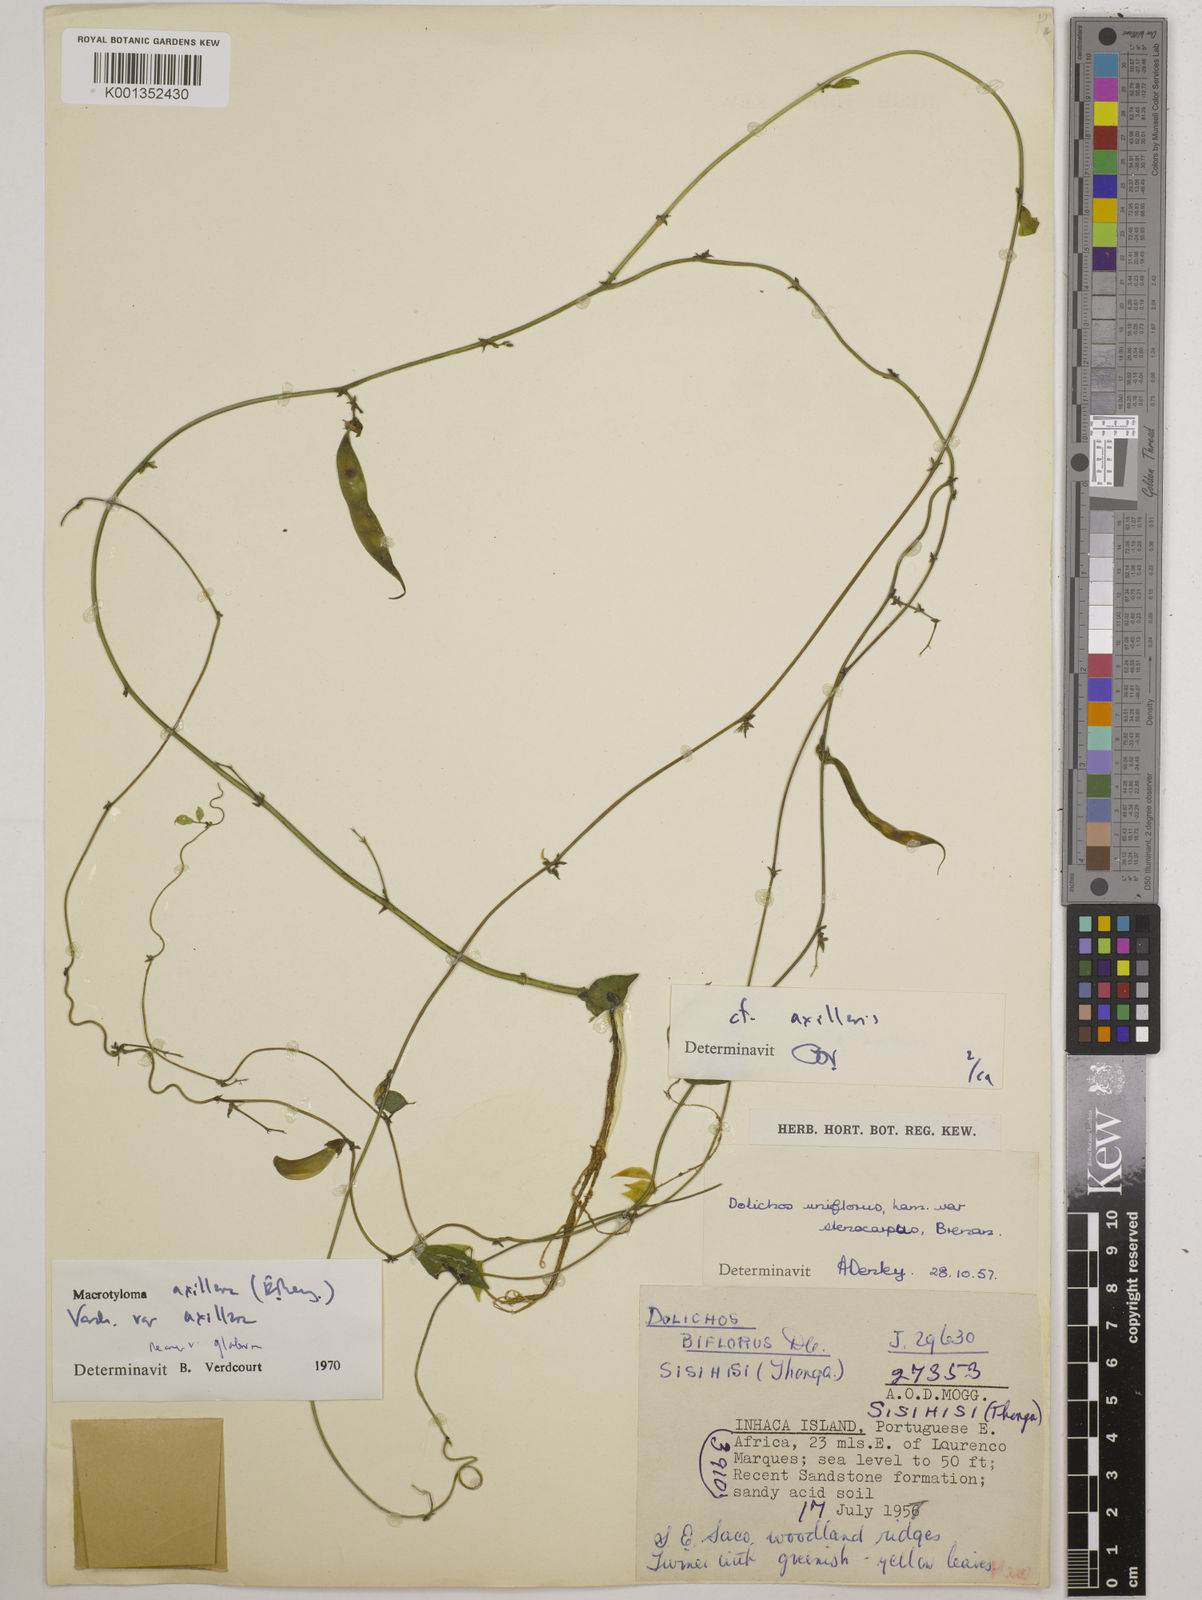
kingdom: Plantae
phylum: Tracheophyta
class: Magnoliopsida
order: Fabales
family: Fabaceae
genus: Macrotyloma
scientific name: Macrotyloma axillare
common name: Perennial horsegram
